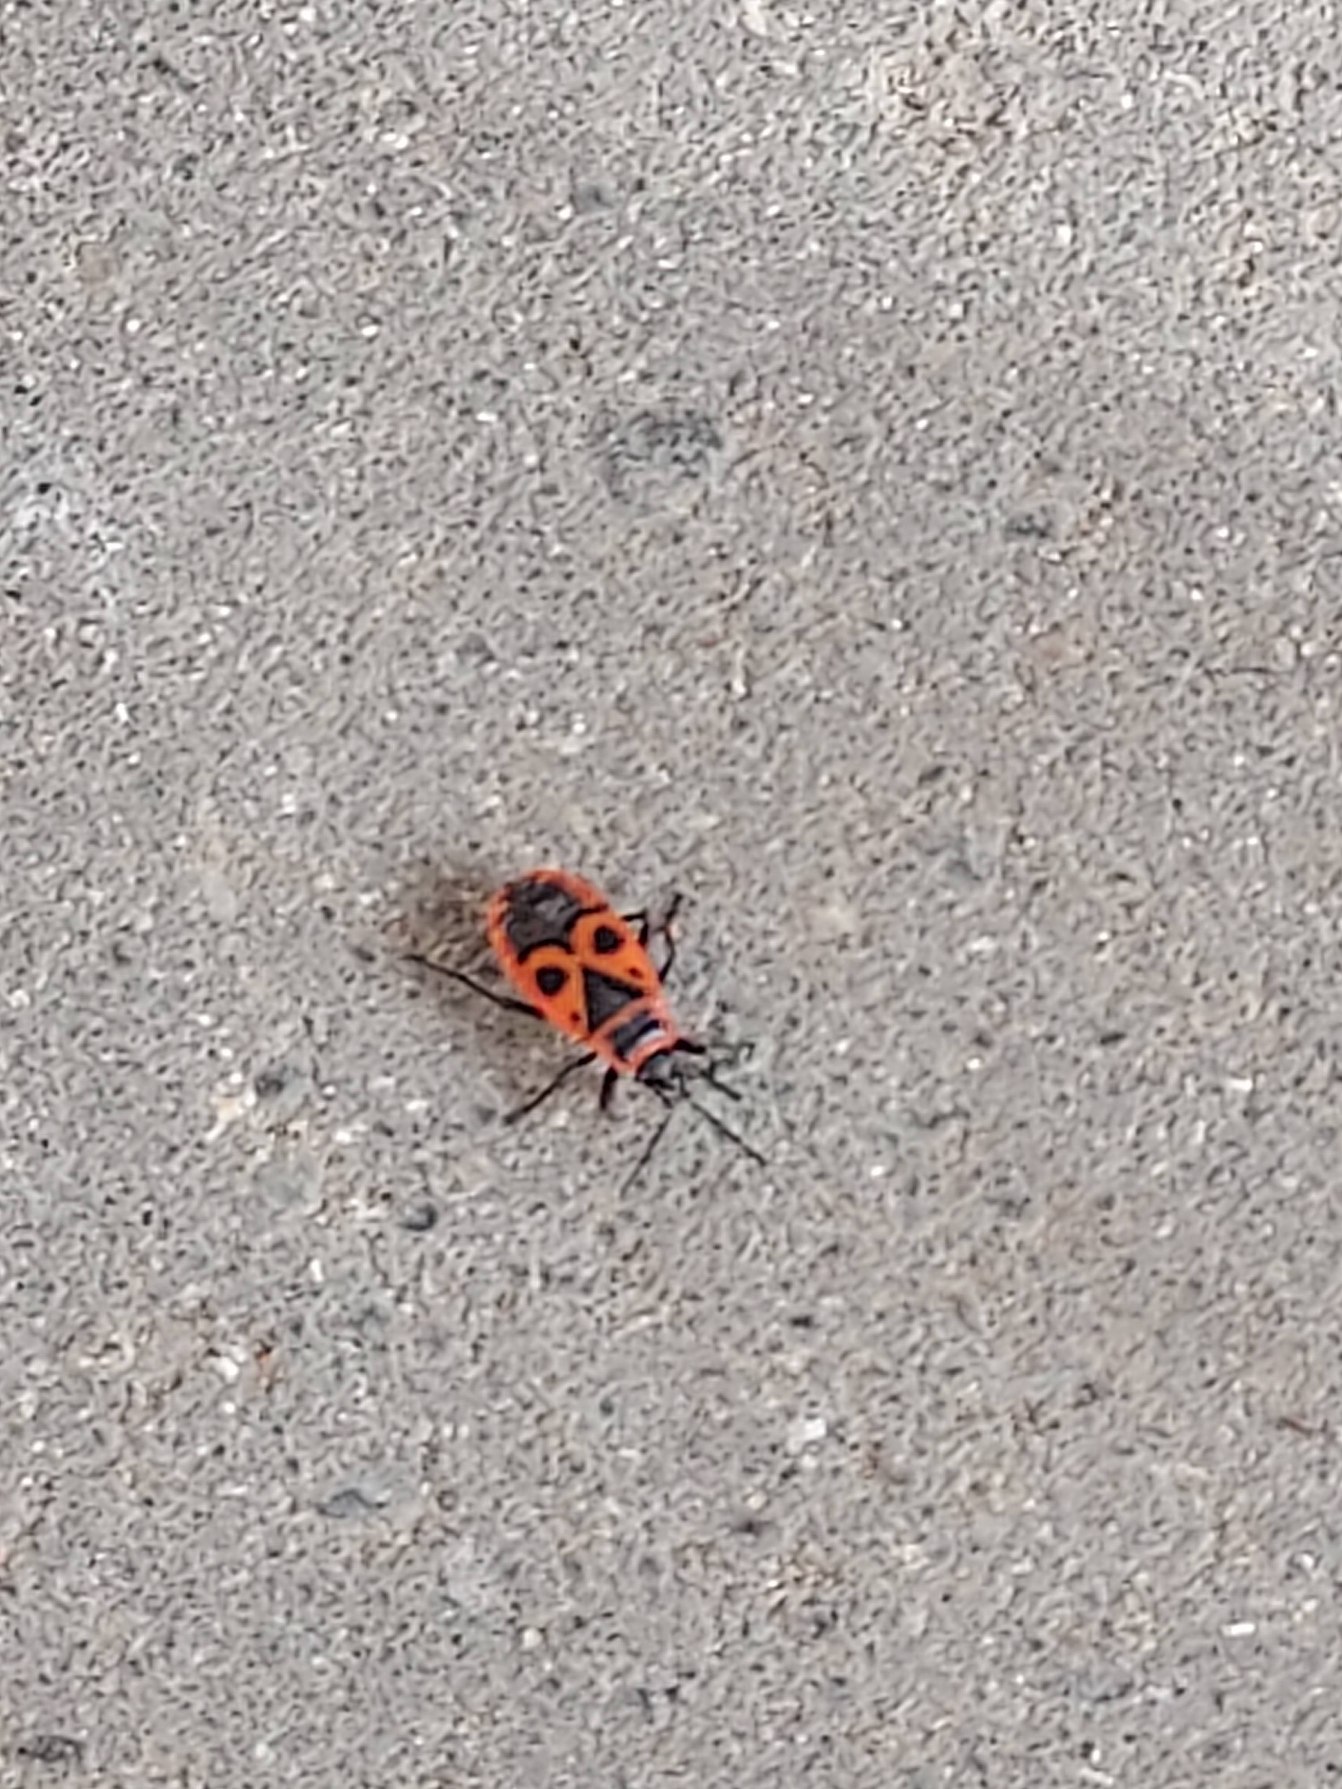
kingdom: Animalia
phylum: Arthropoda
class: Insecta
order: Hemiptera
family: Pyrrhocoridae
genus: Pyrrhocoris
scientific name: Pyrrhocoris apterus
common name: Ildtæge
